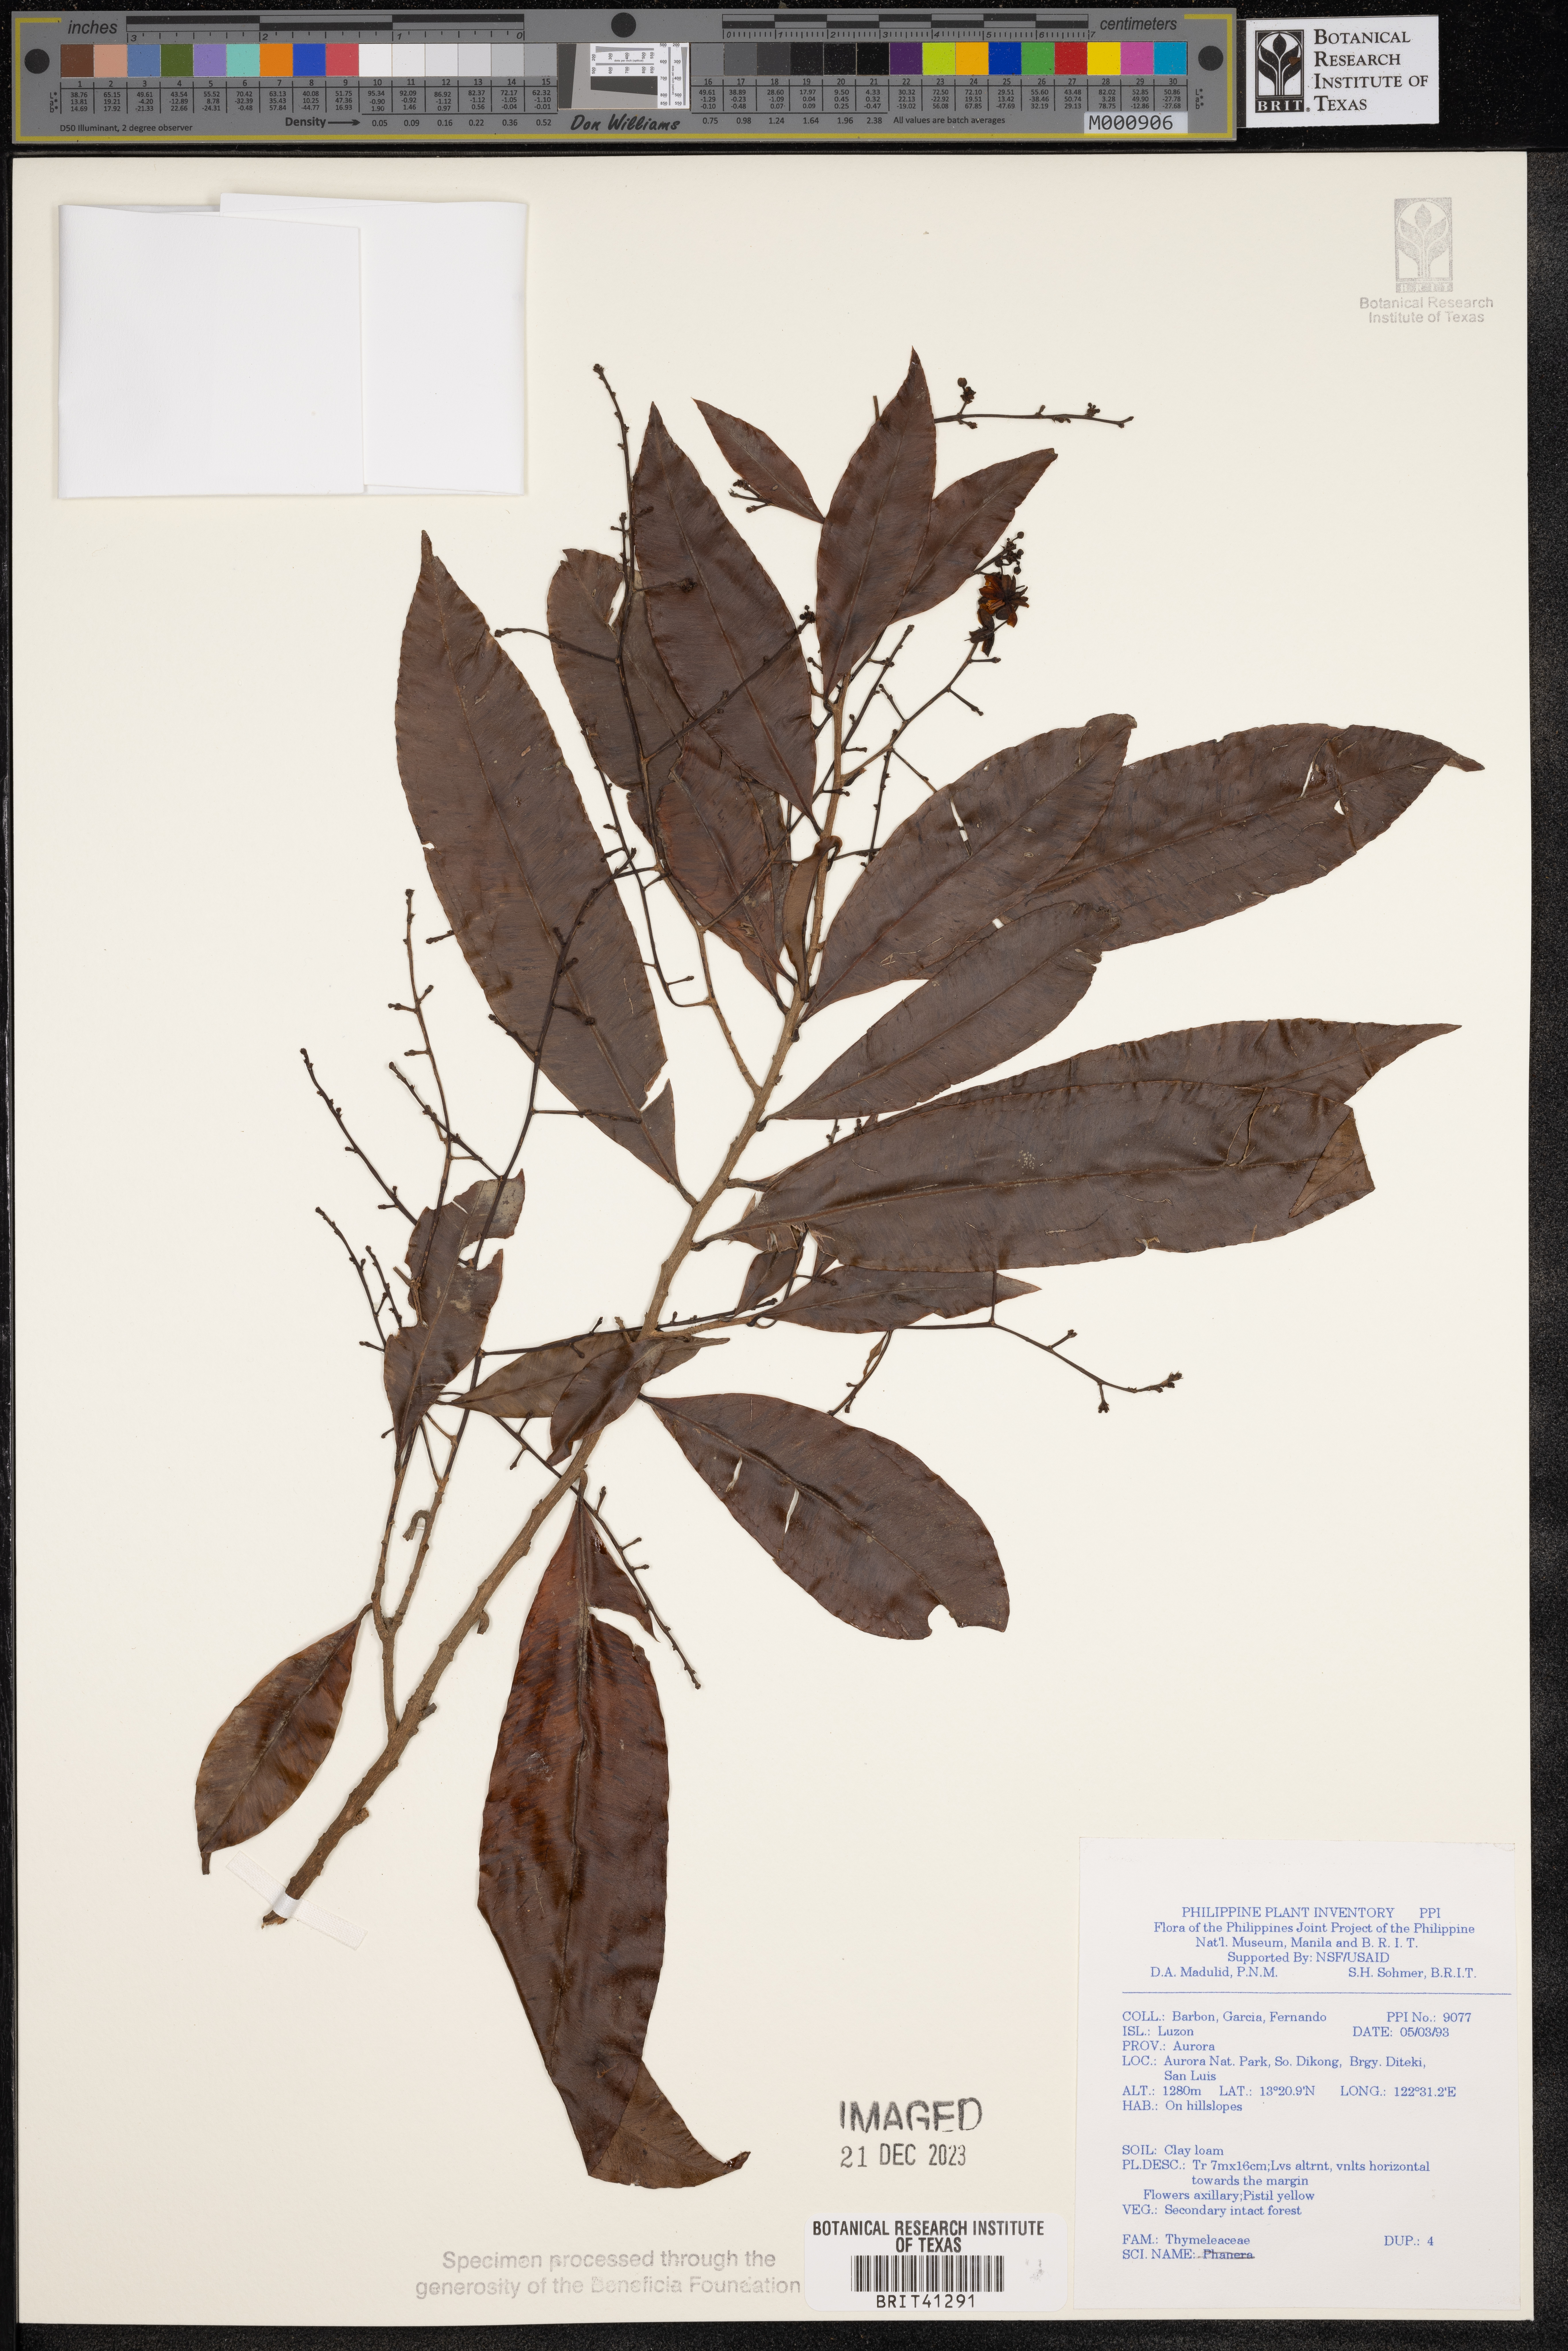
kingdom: Plantae
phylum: Tracheophyta
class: Magnoliopsida
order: Malvales
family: Thymelaeaceae
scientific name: Thymelaeaceae
